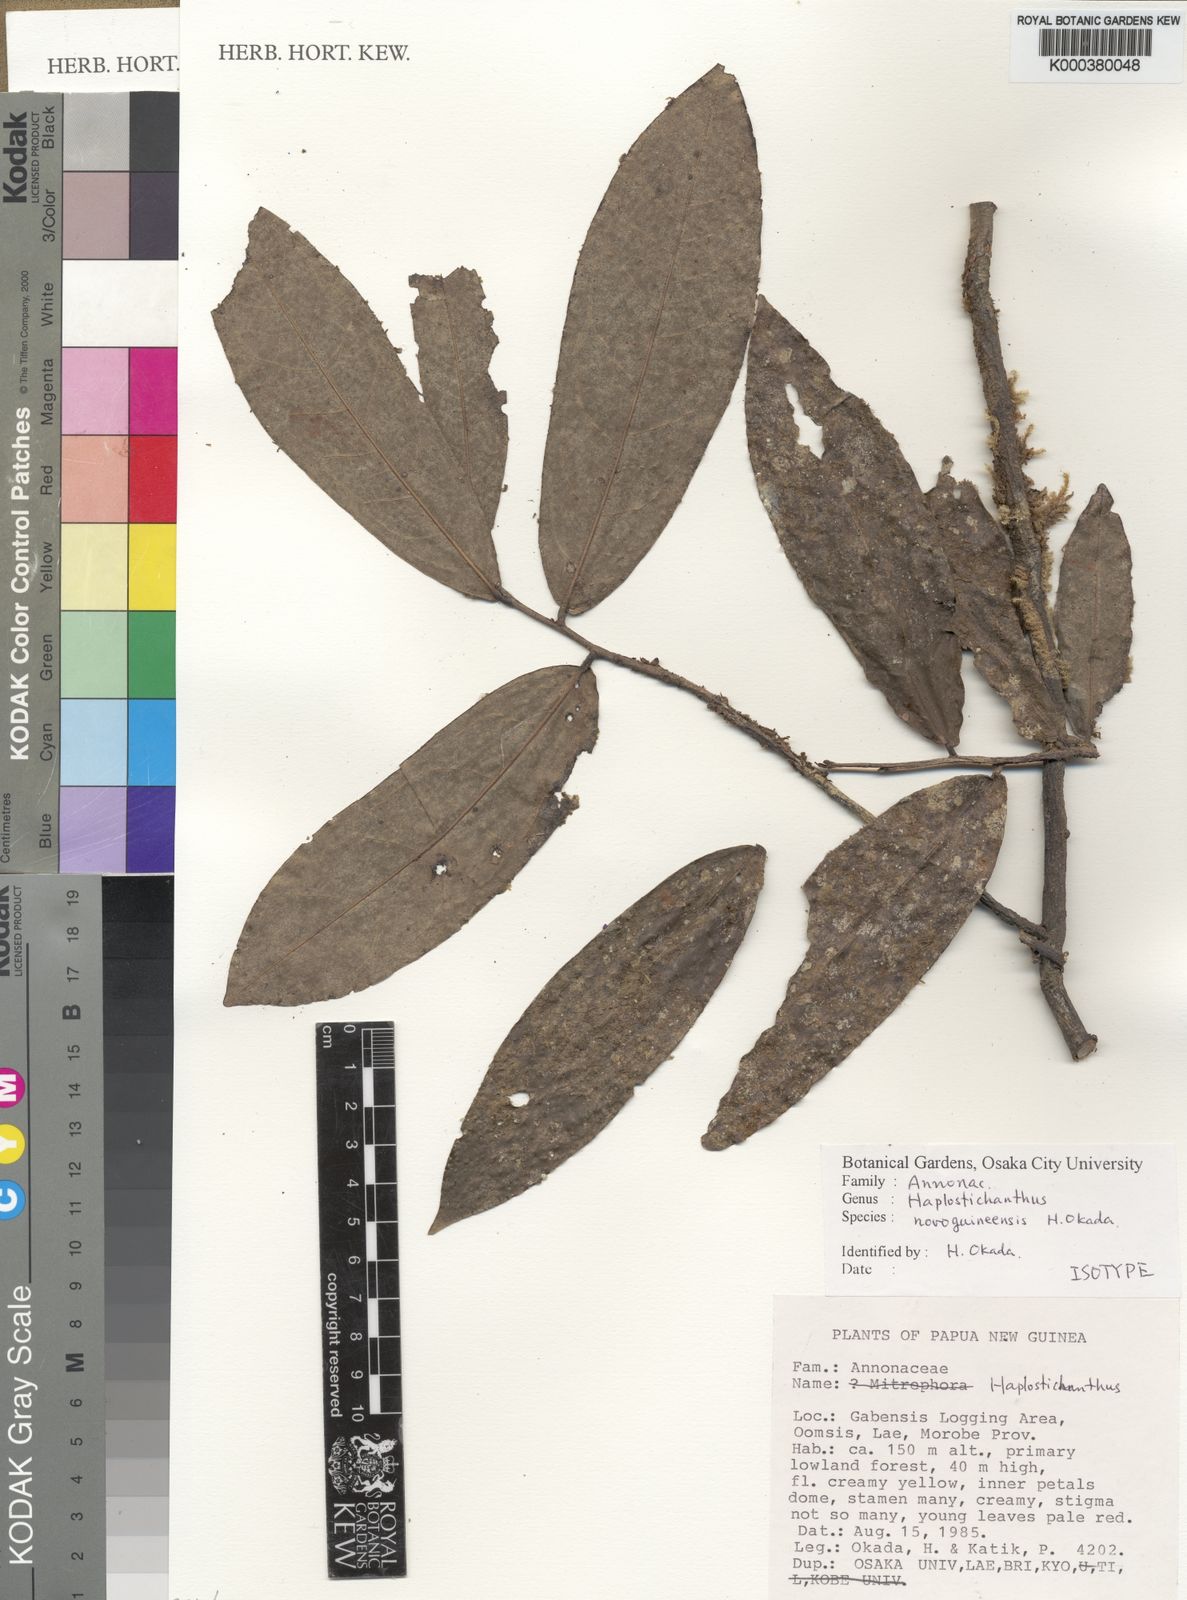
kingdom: Plantae
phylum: Tracheophyta
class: Magnoliopsida
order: Magnoliales
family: Annonaceae
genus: Haplostichanthus
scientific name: Haplostichanthus novoguineensis
